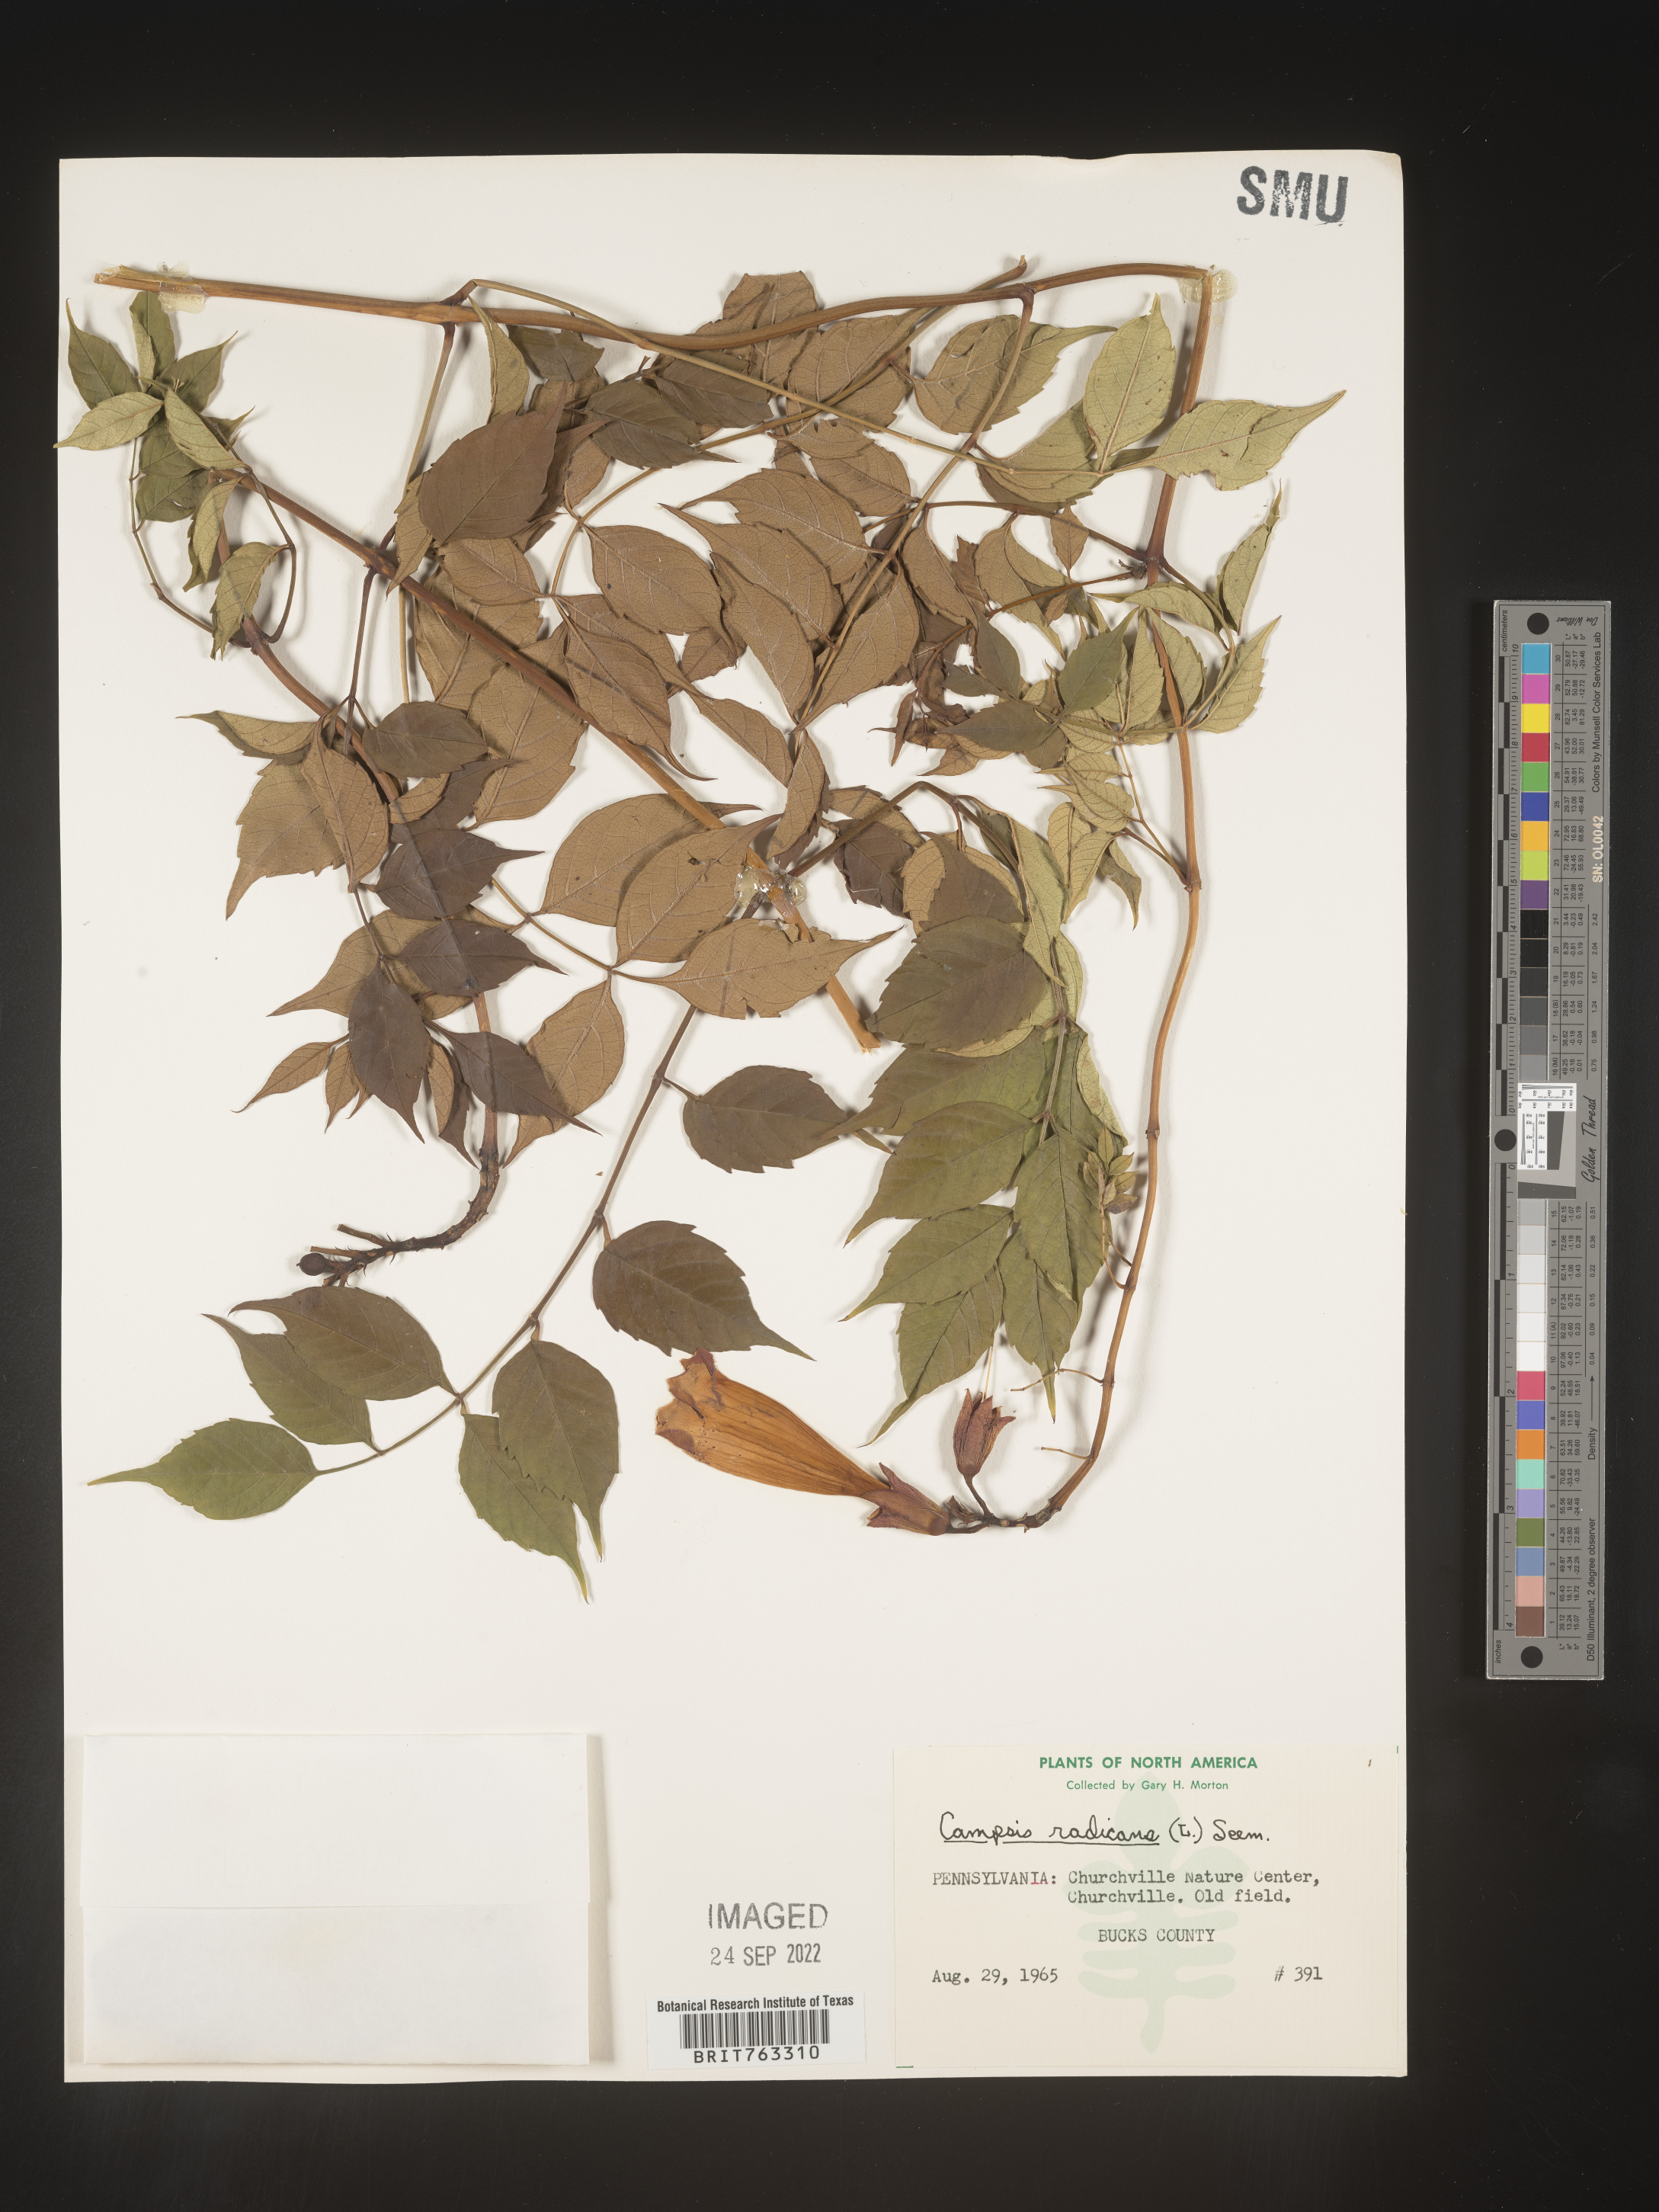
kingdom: Plantae
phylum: Tracheophyta
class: Magnoliopsida
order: Lamiales
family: Bignoniaceae
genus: Campsis
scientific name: Campsis radicans
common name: Trumpet-creeper
